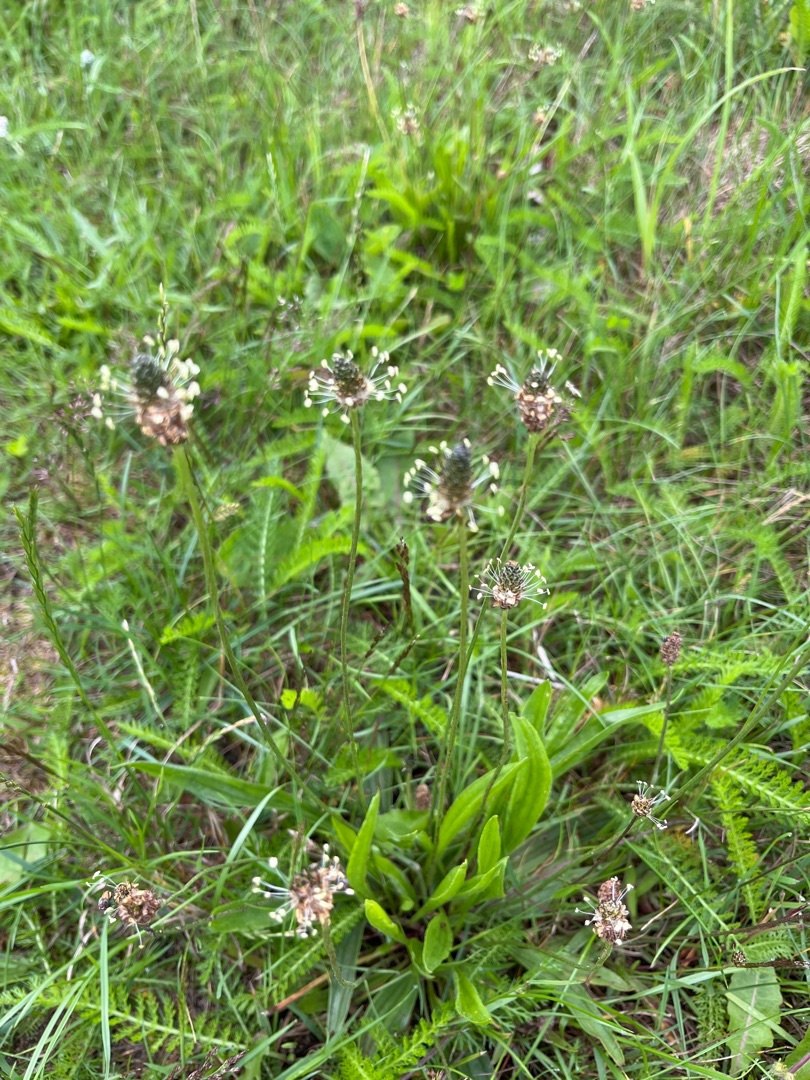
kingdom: Plantae
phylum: Tracheophyta
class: Magnoliopsida
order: Lamiales
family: Plantaginaceae
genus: Plantago
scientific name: Plantago lanceolata
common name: Lancet-vejbred
